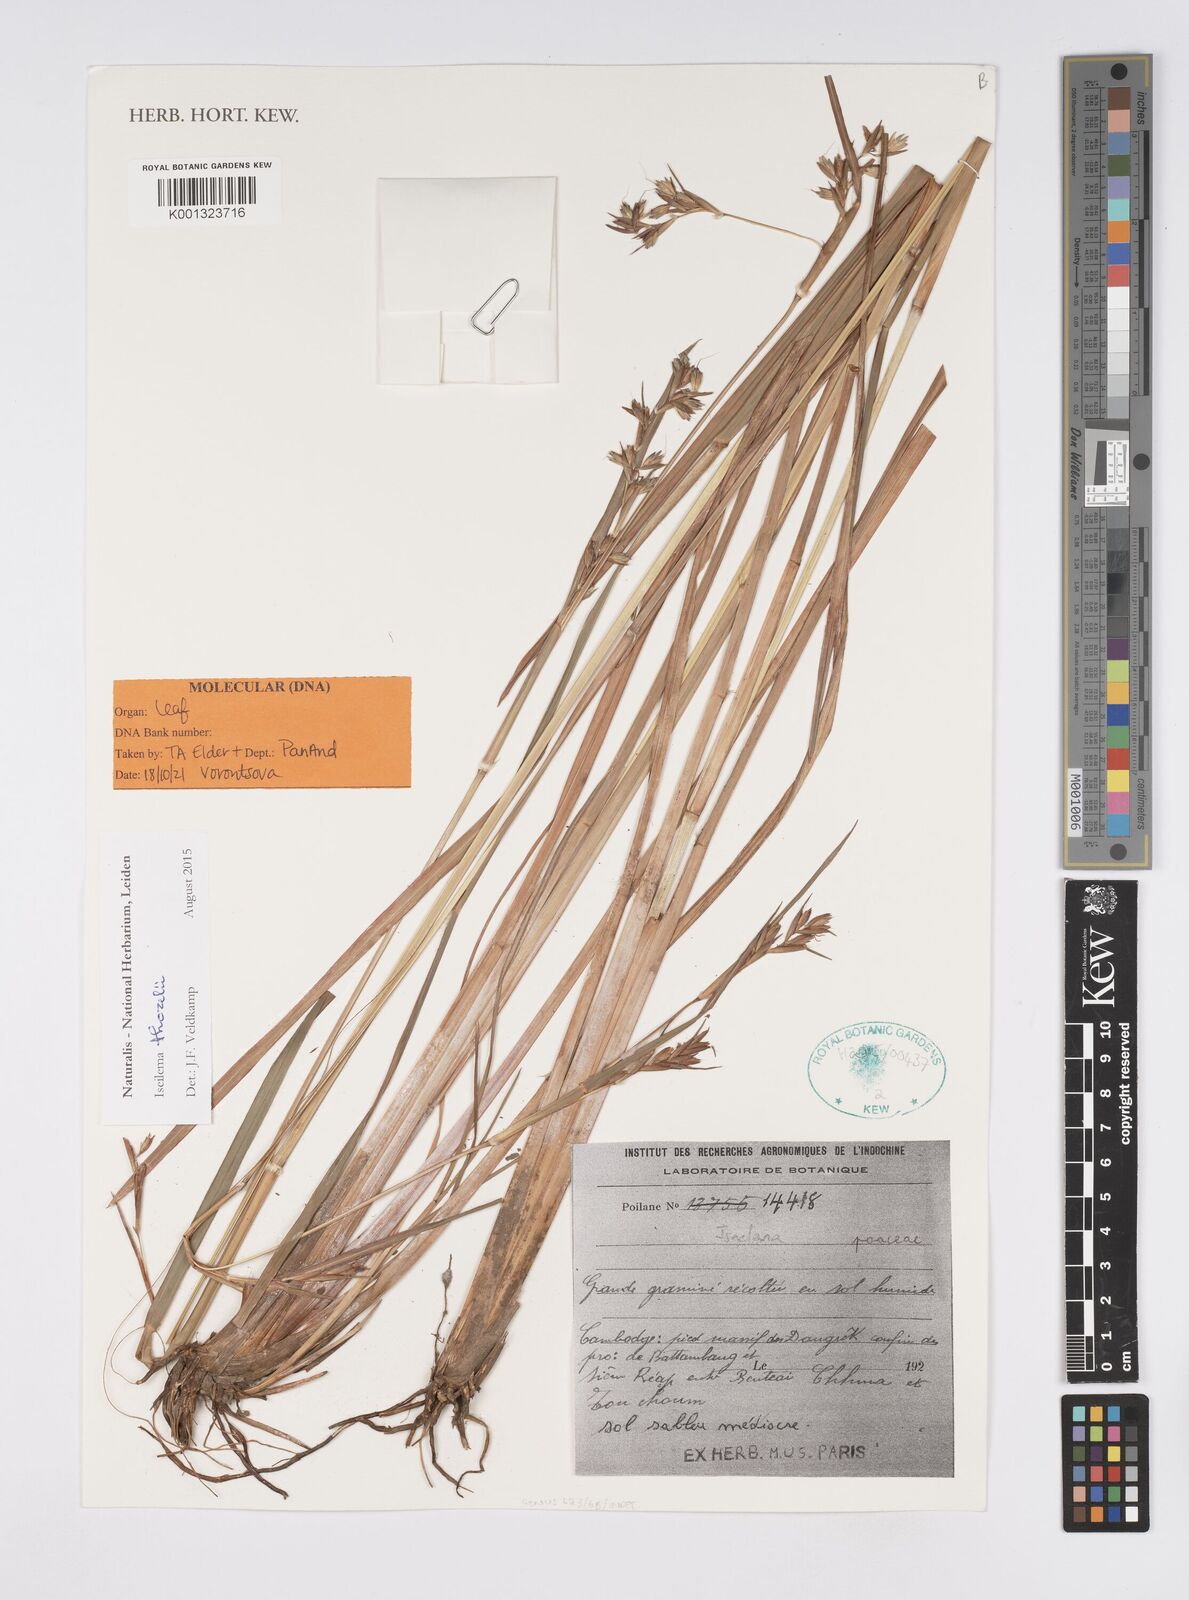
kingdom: Plantae
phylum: Tracheophyta
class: Liliopsida
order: Poales
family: Poaceae
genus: Iseilema
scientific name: Iseilema thorelii
